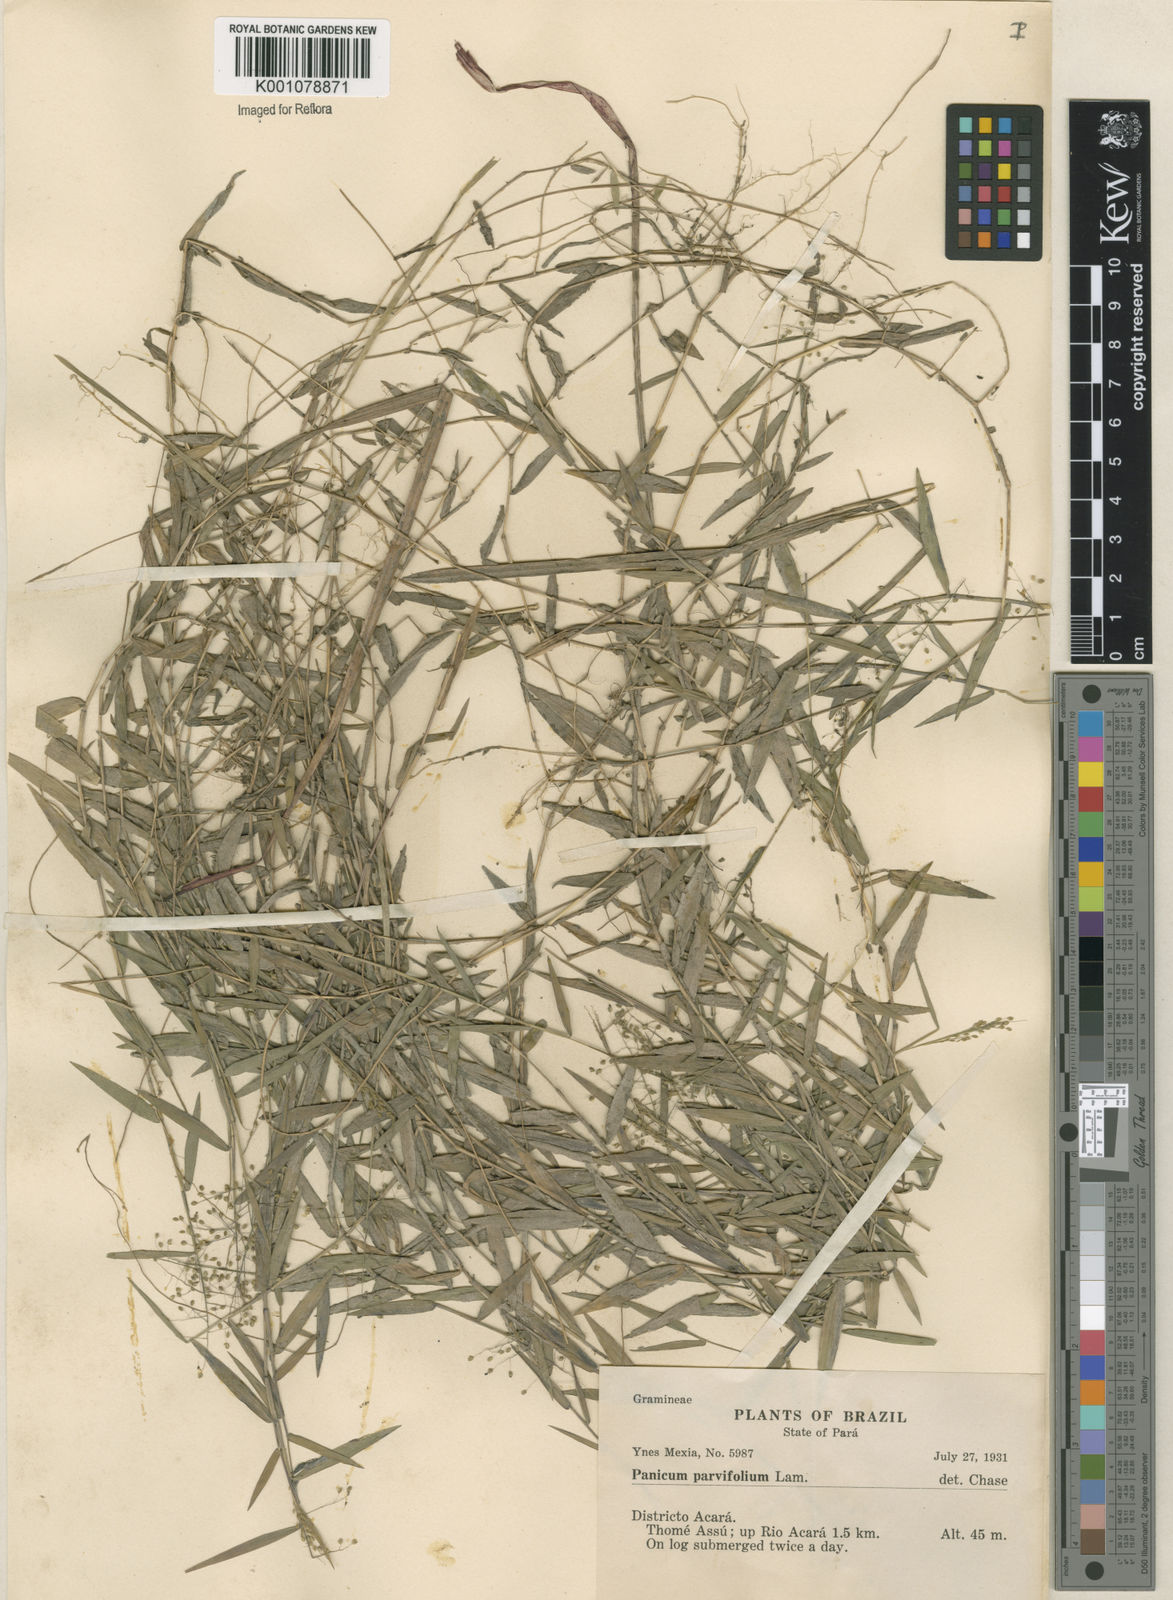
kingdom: Plantae
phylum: Tracheophyta
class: Liliopsida
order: Poales
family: Poaceae
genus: Trichanthecium
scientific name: Trichanthecium parvifolium
